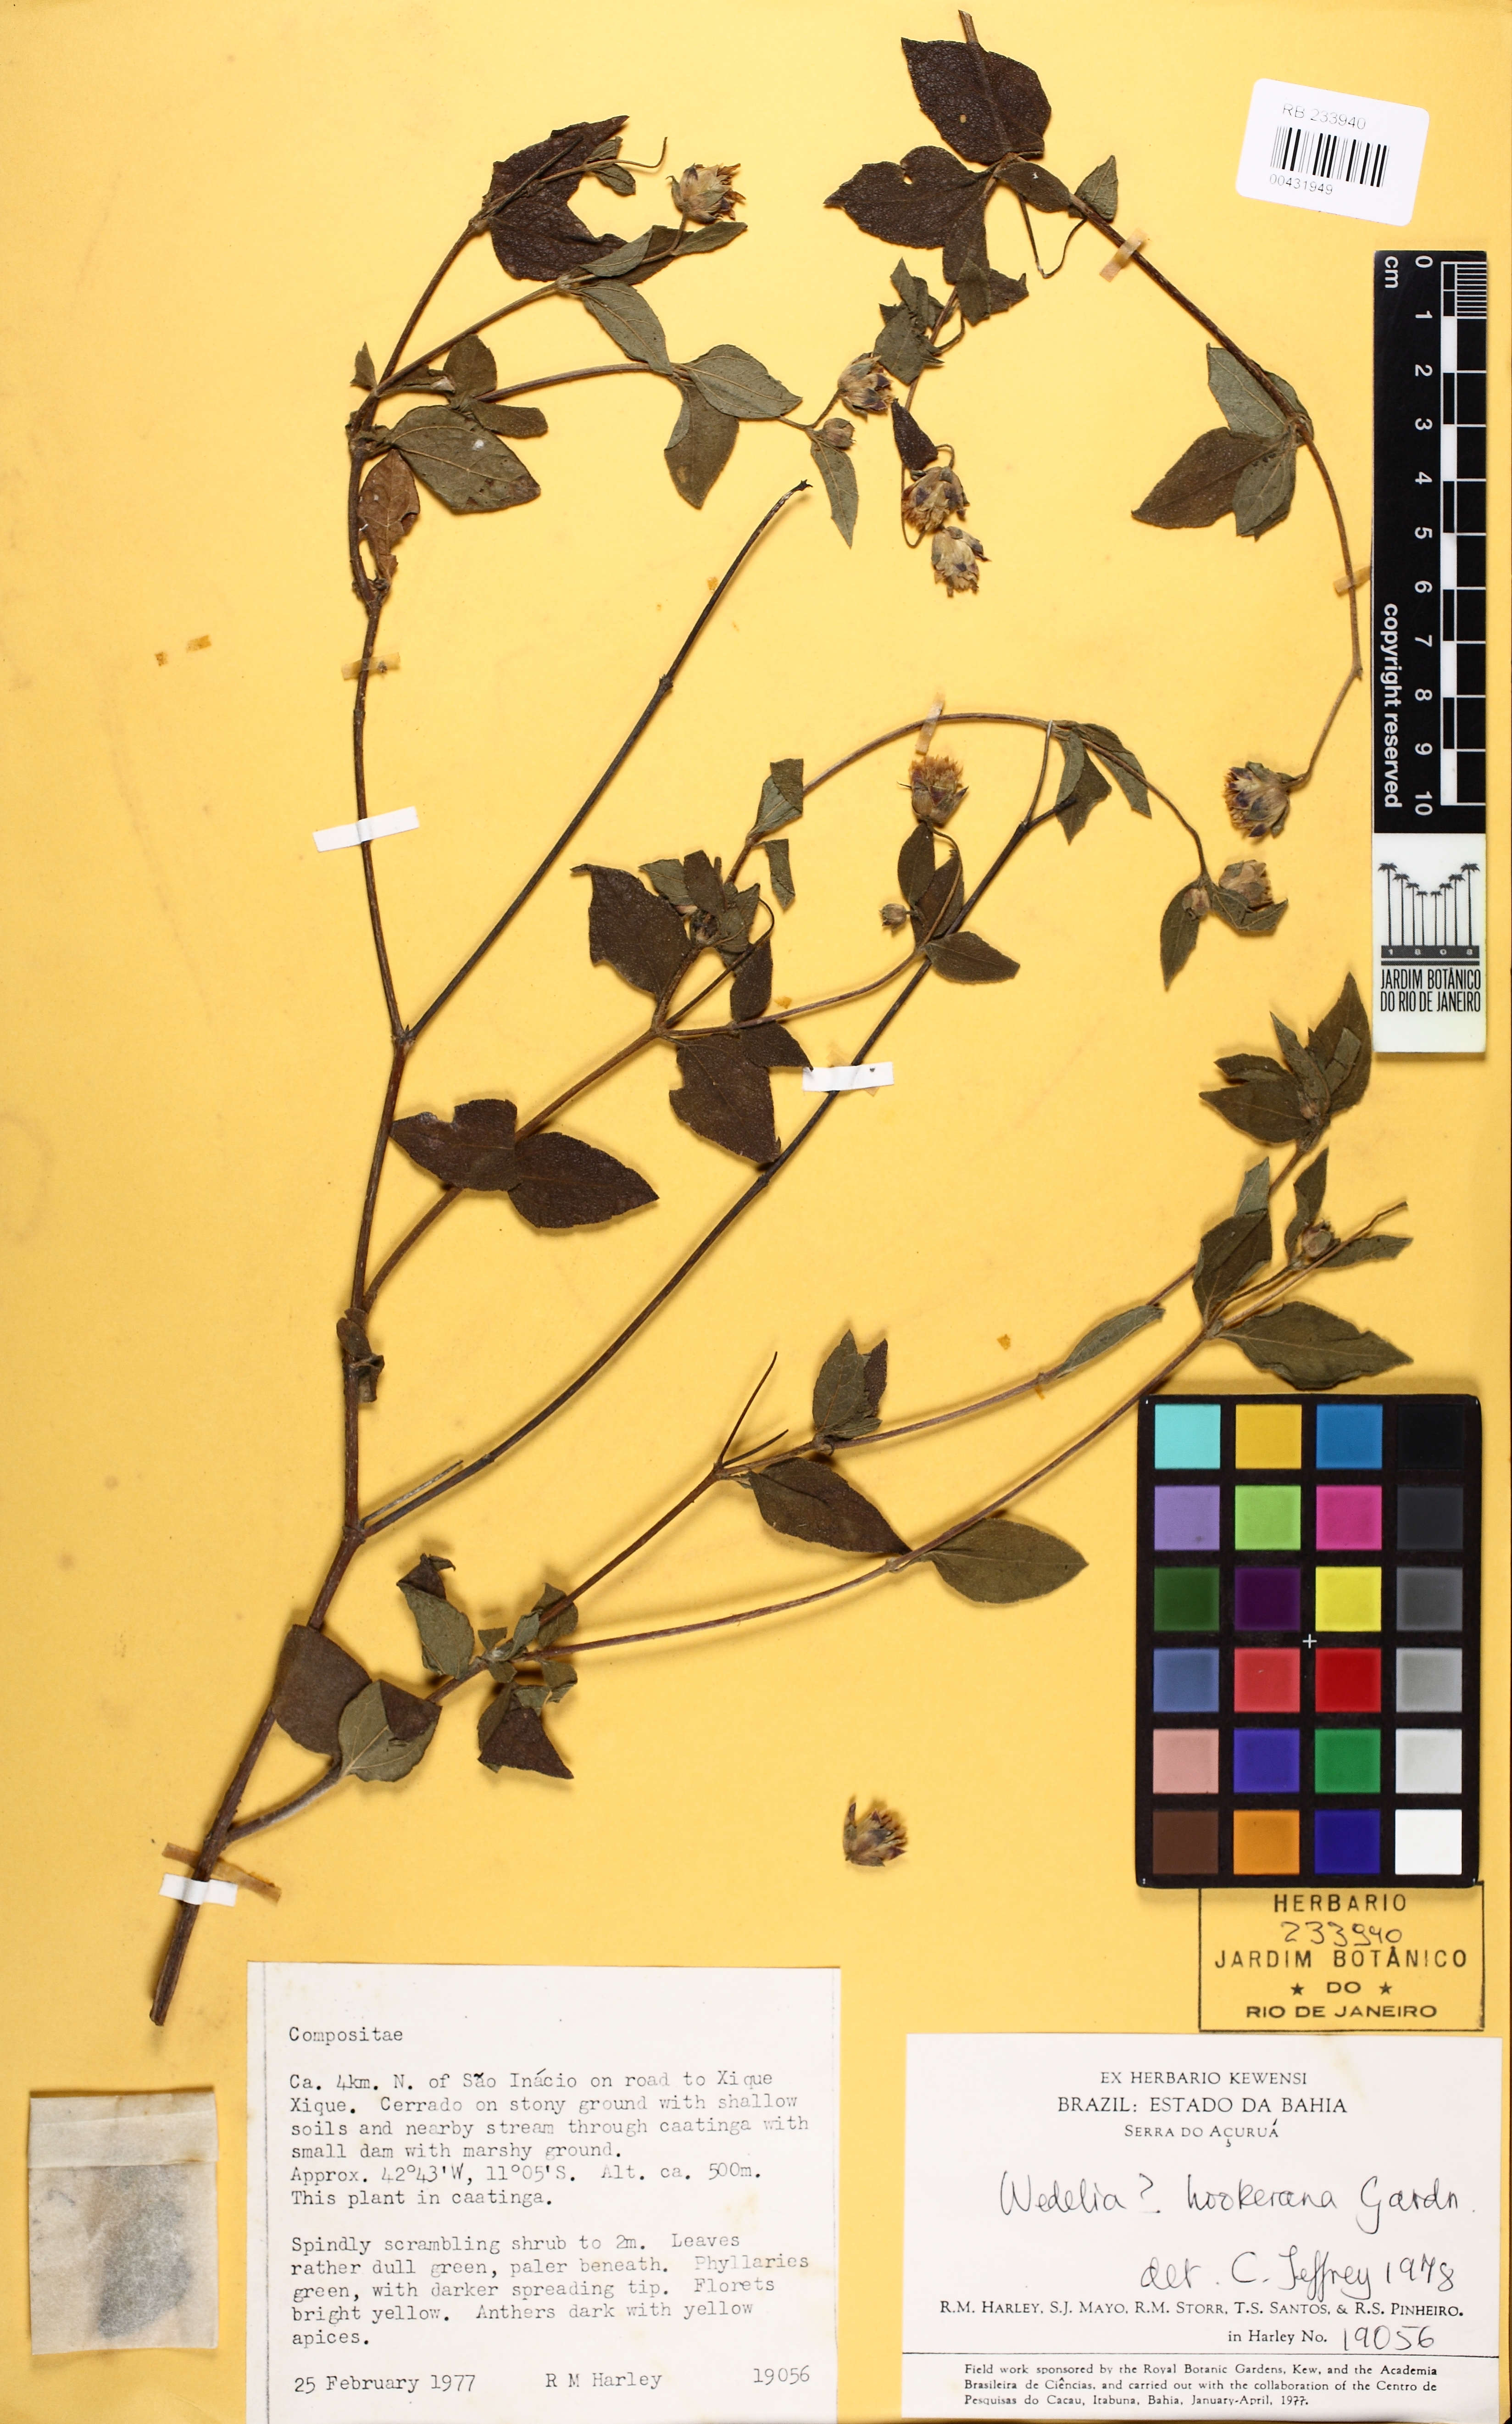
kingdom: Plantae
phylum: Tracheophyta
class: Magnoliopsida
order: Asterales
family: Asteraceae
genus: Wedelia
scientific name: Wedelia goyazensis
